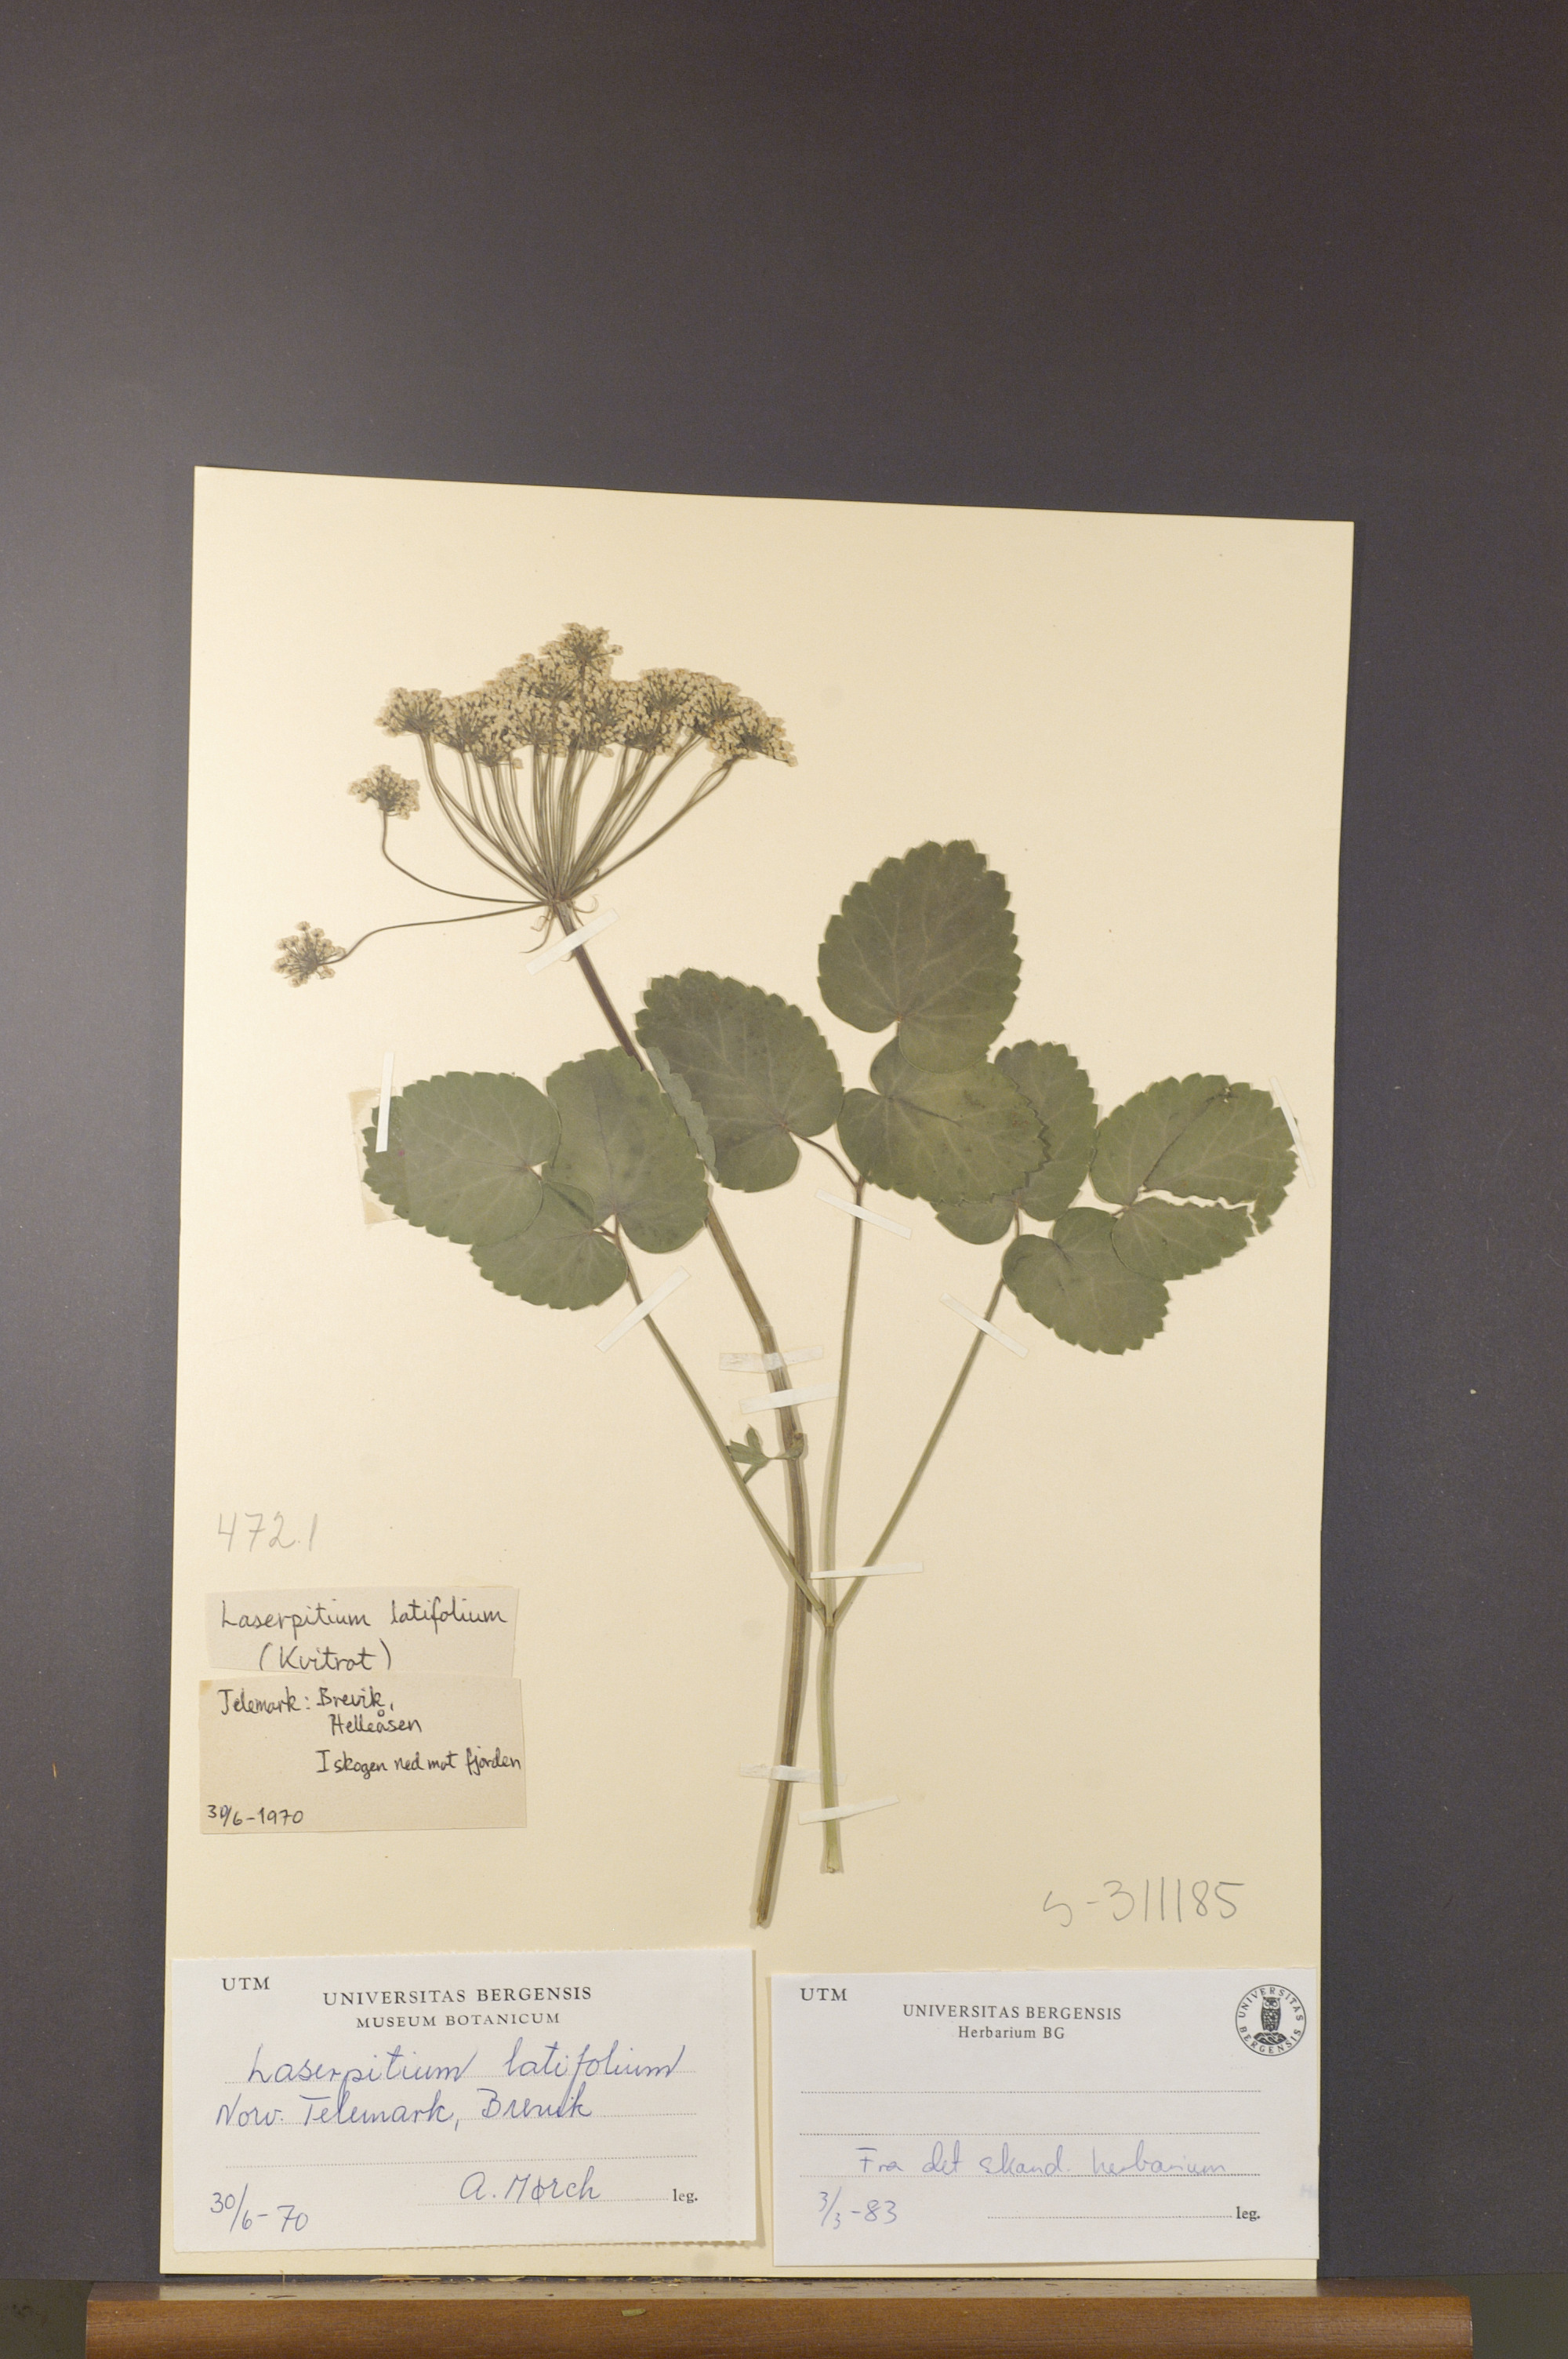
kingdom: Plantae
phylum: Tracheophyta
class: Magnoliopsida
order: Apiales
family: Apiaceae
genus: Laserpitium
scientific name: Laserpitium latifolium
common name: Broadleaf sermountain
